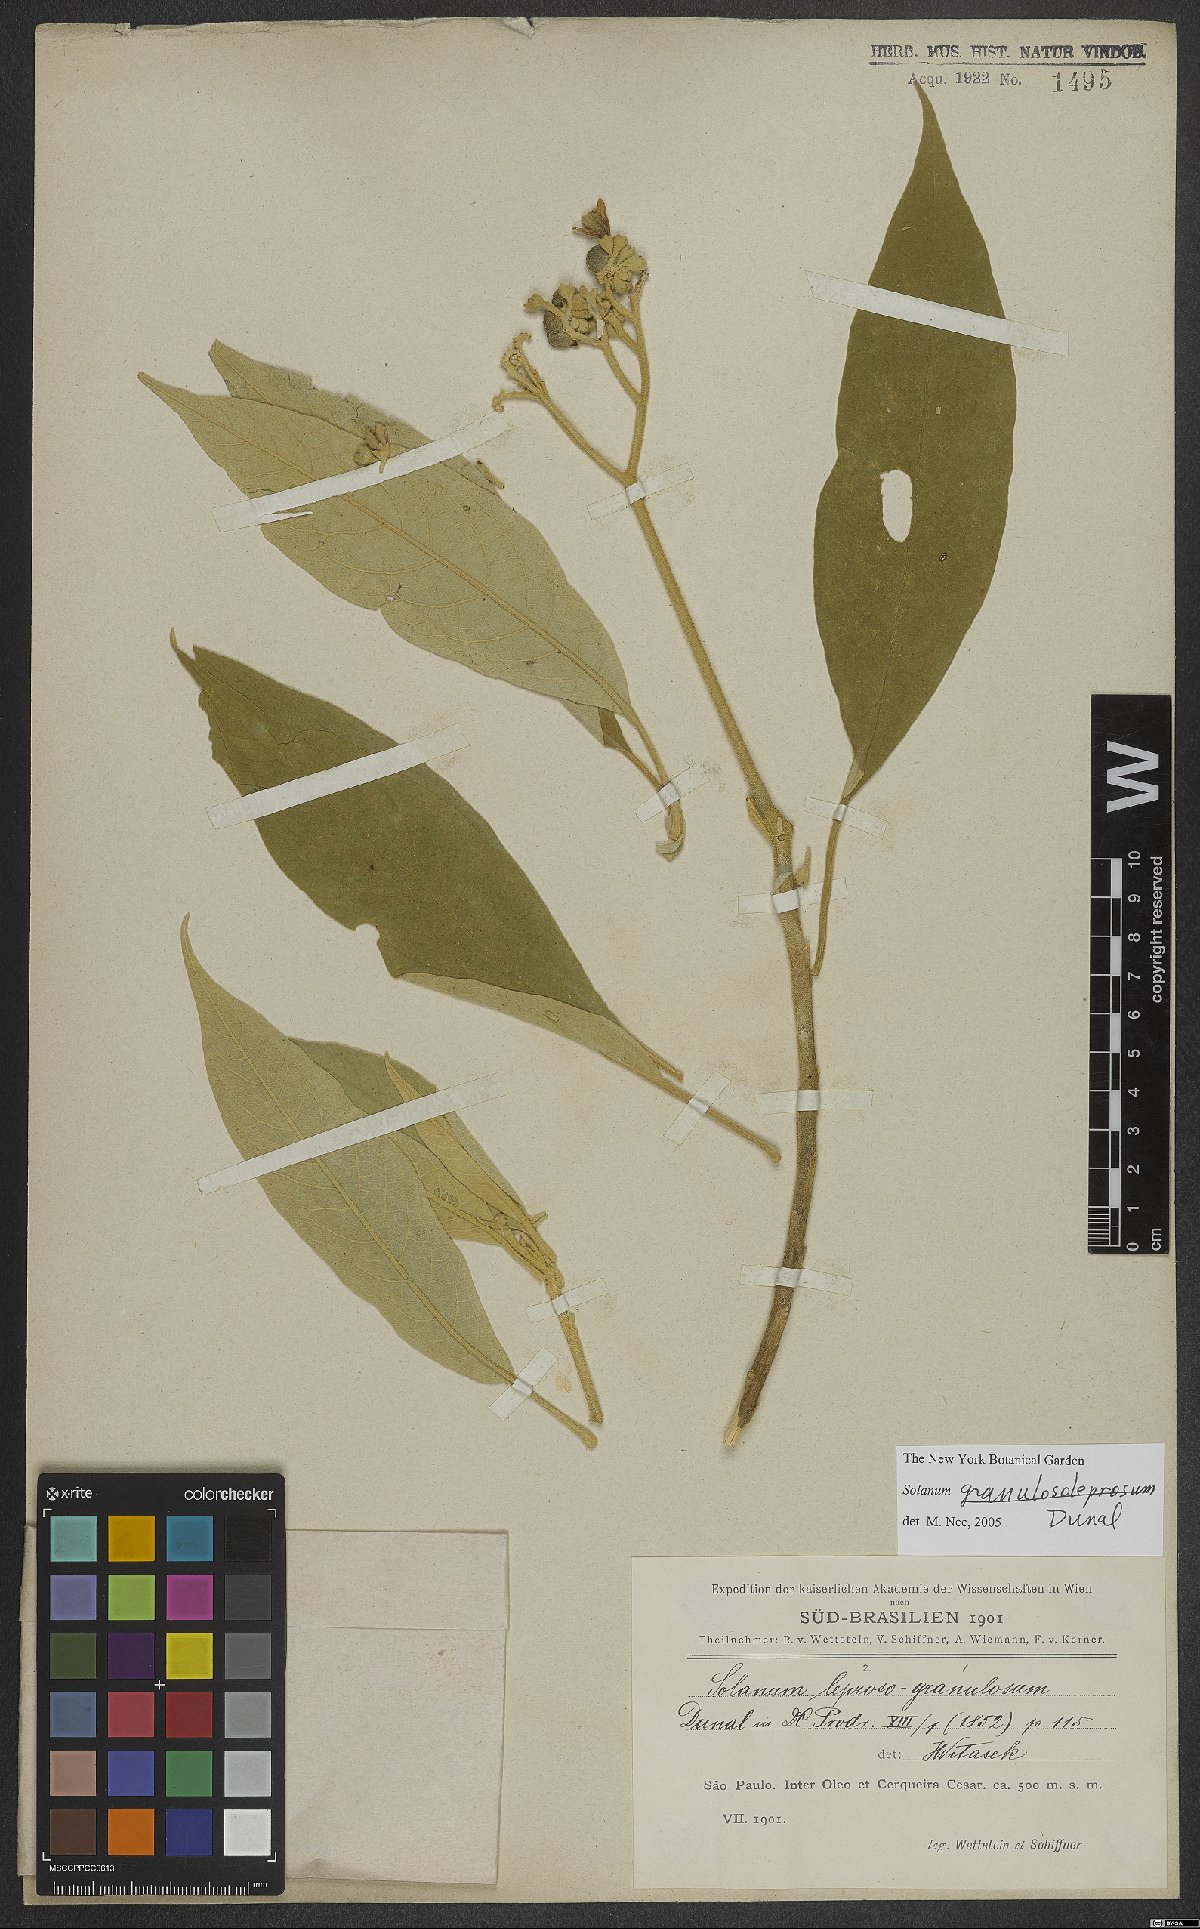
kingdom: Plantae
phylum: Tracheophyta
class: Magnoliopsida
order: Solanales
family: Solanaceae
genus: Solanum
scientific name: Solanum granulosoleprosum
